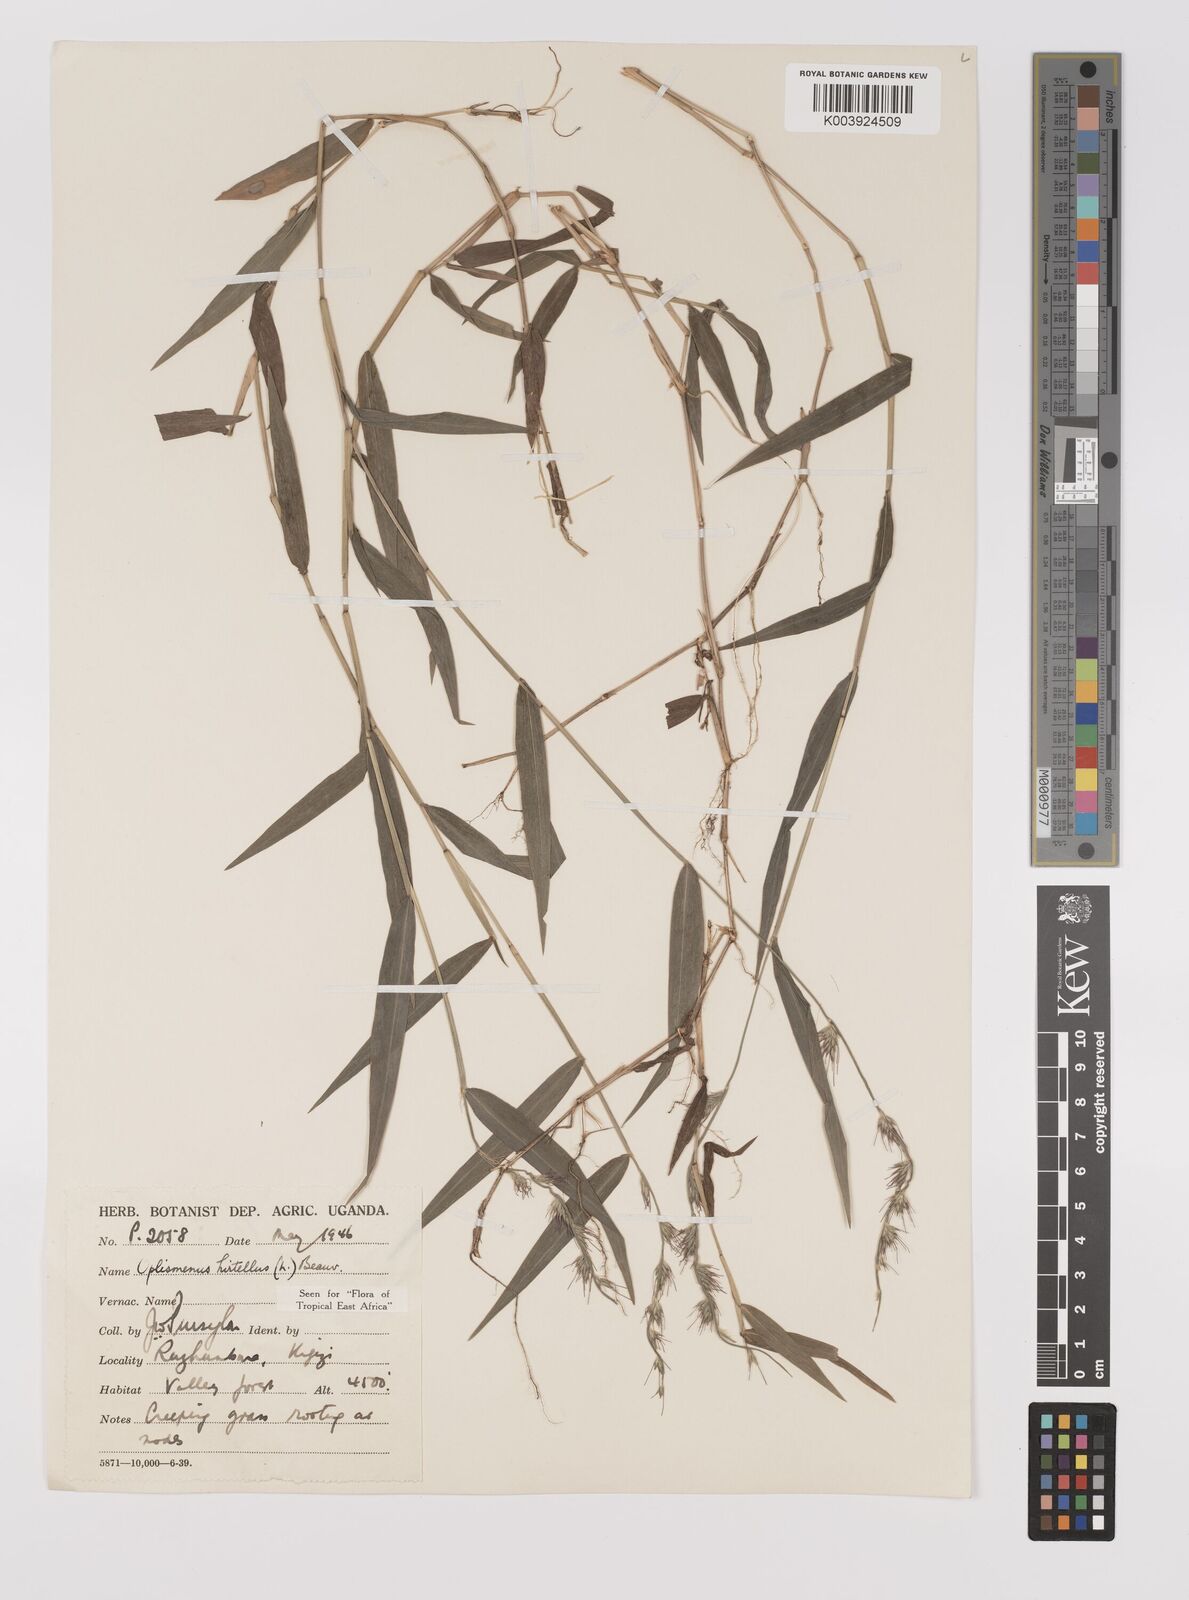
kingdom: Plantae
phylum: Tracheophyta
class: Liliopsida
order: Poales
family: Poaceae
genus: Oplismenus
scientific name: Oplismenus hirtellus
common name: Basketgrass
